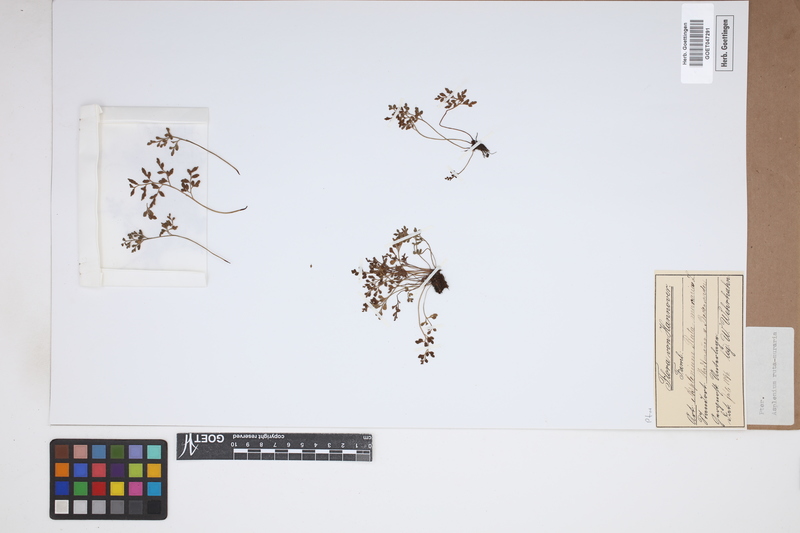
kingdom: Plantae
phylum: Tracheophyta
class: Polypodiopsida
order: Polypodiales
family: Aspleniaceae
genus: Asplenium
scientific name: Asplenium ruta-muraria
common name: Wall-rue
